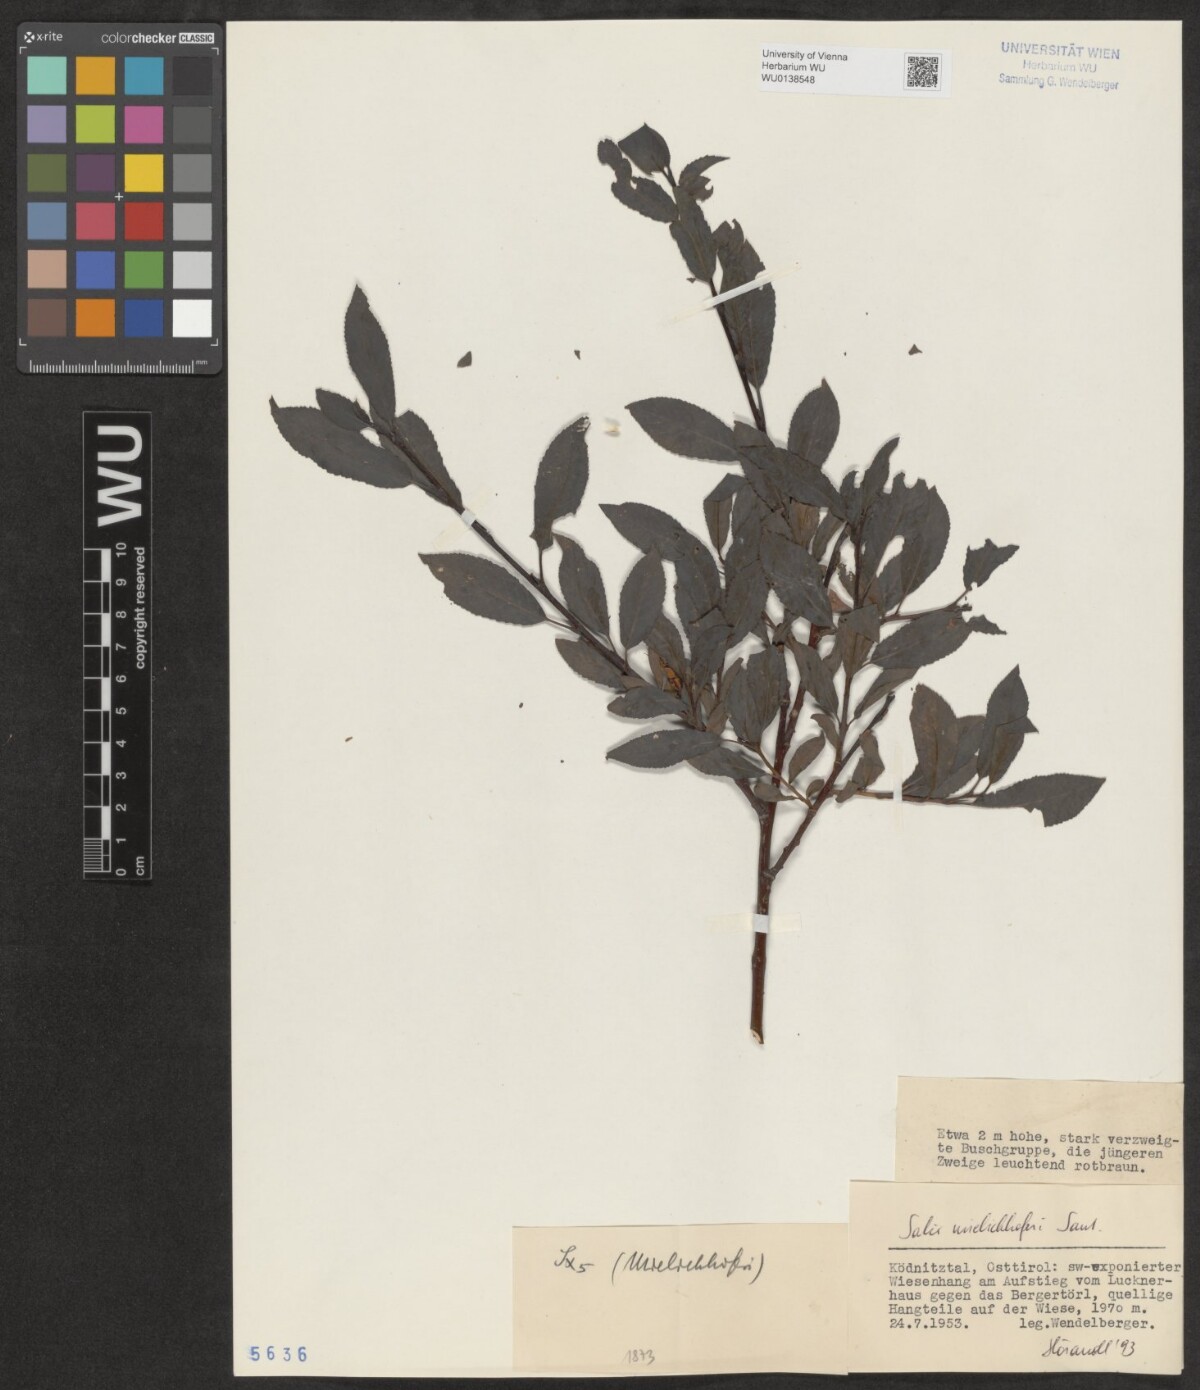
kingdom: Plantae
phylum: Tracheophyta
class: Magnoliopsida
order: Malpighiales
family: Salicaceae
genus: Salix
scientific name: Salix mielichhoferi
